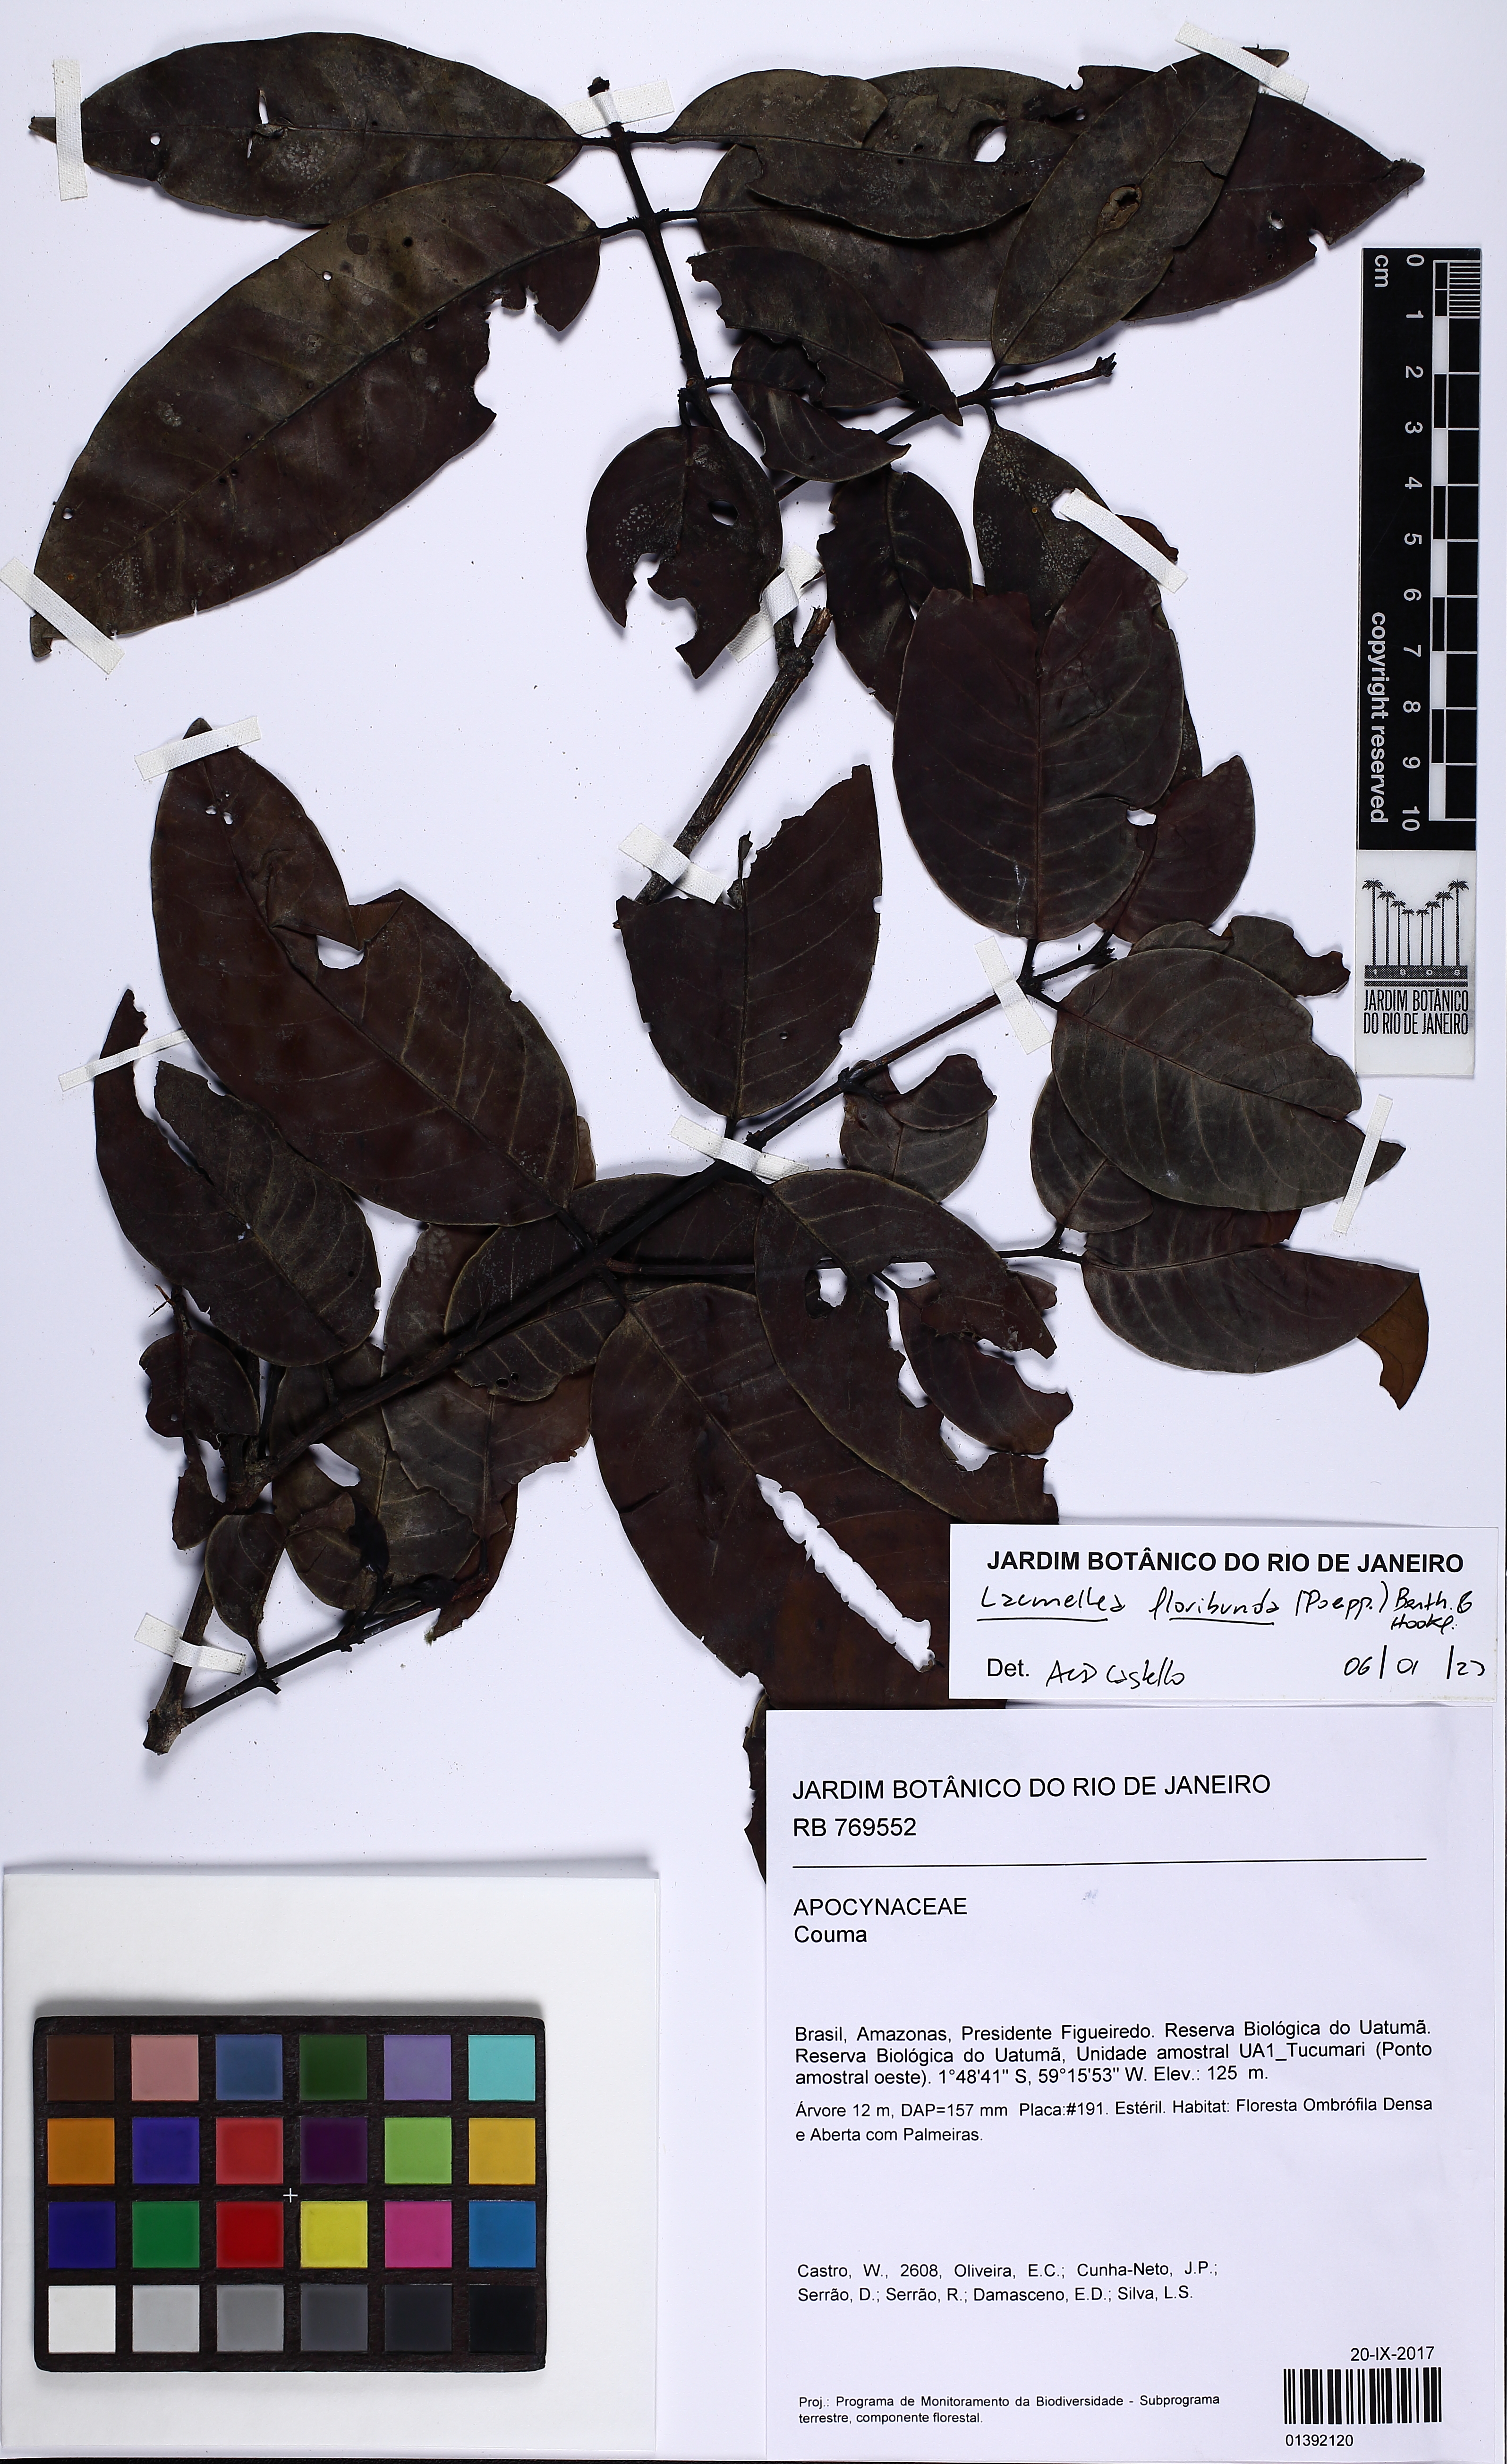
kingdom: Plantae
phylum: Tracheophyta
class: Magnoliopsida
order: Gentianales
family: Apocynaceae
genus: Lacmellea
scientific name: Lacmellea floribunda
